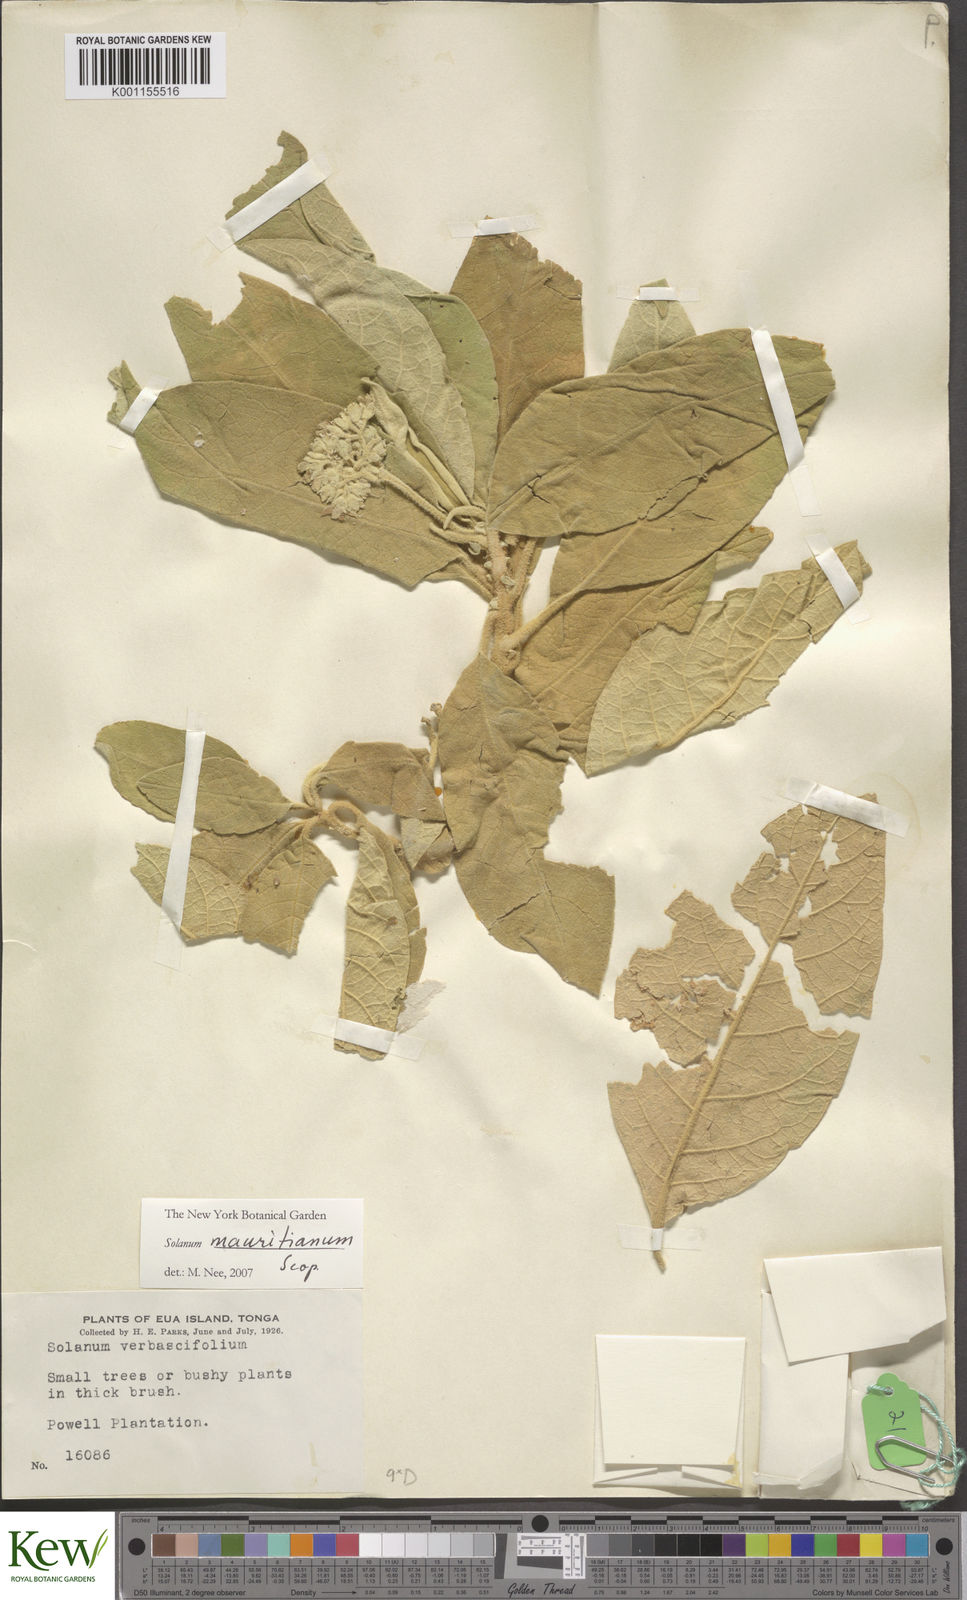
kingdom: Plantae
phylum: Tracheophyta
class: Magnoliopsida
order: Solanales
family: Solanaceae
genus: Solanum
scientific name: Solanum mauritianum
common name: Earleaf nightshade
